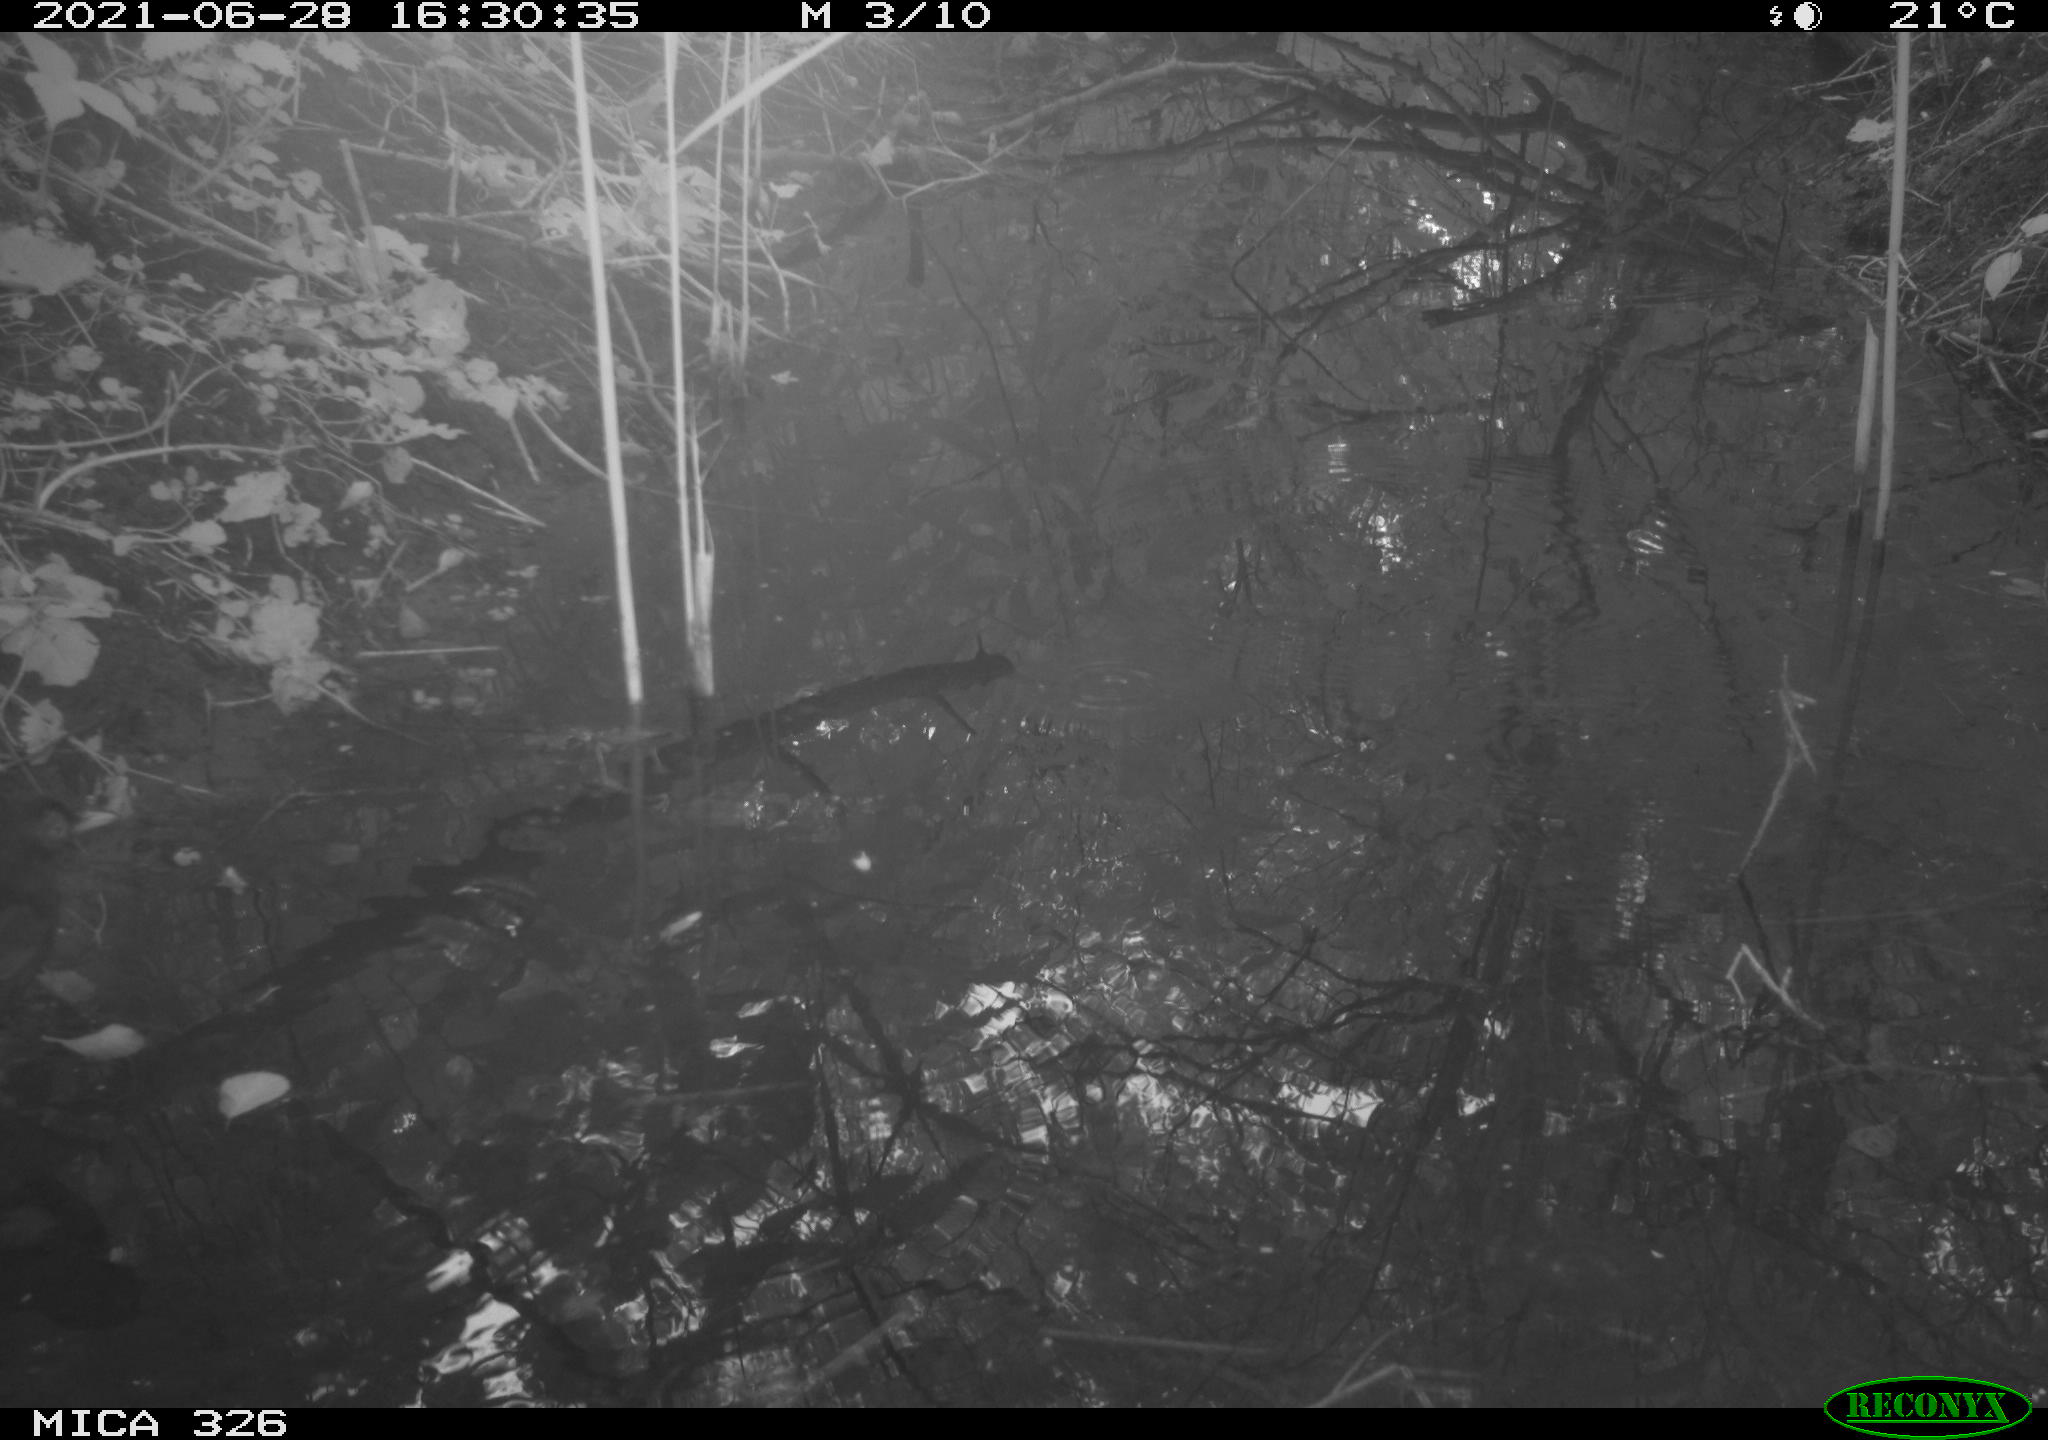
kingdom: Animalia
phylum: Chordata
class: Aves
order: Passeriformes
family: Turdidae
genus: Turdus
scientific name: Turdus merula
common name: Common blackbird
